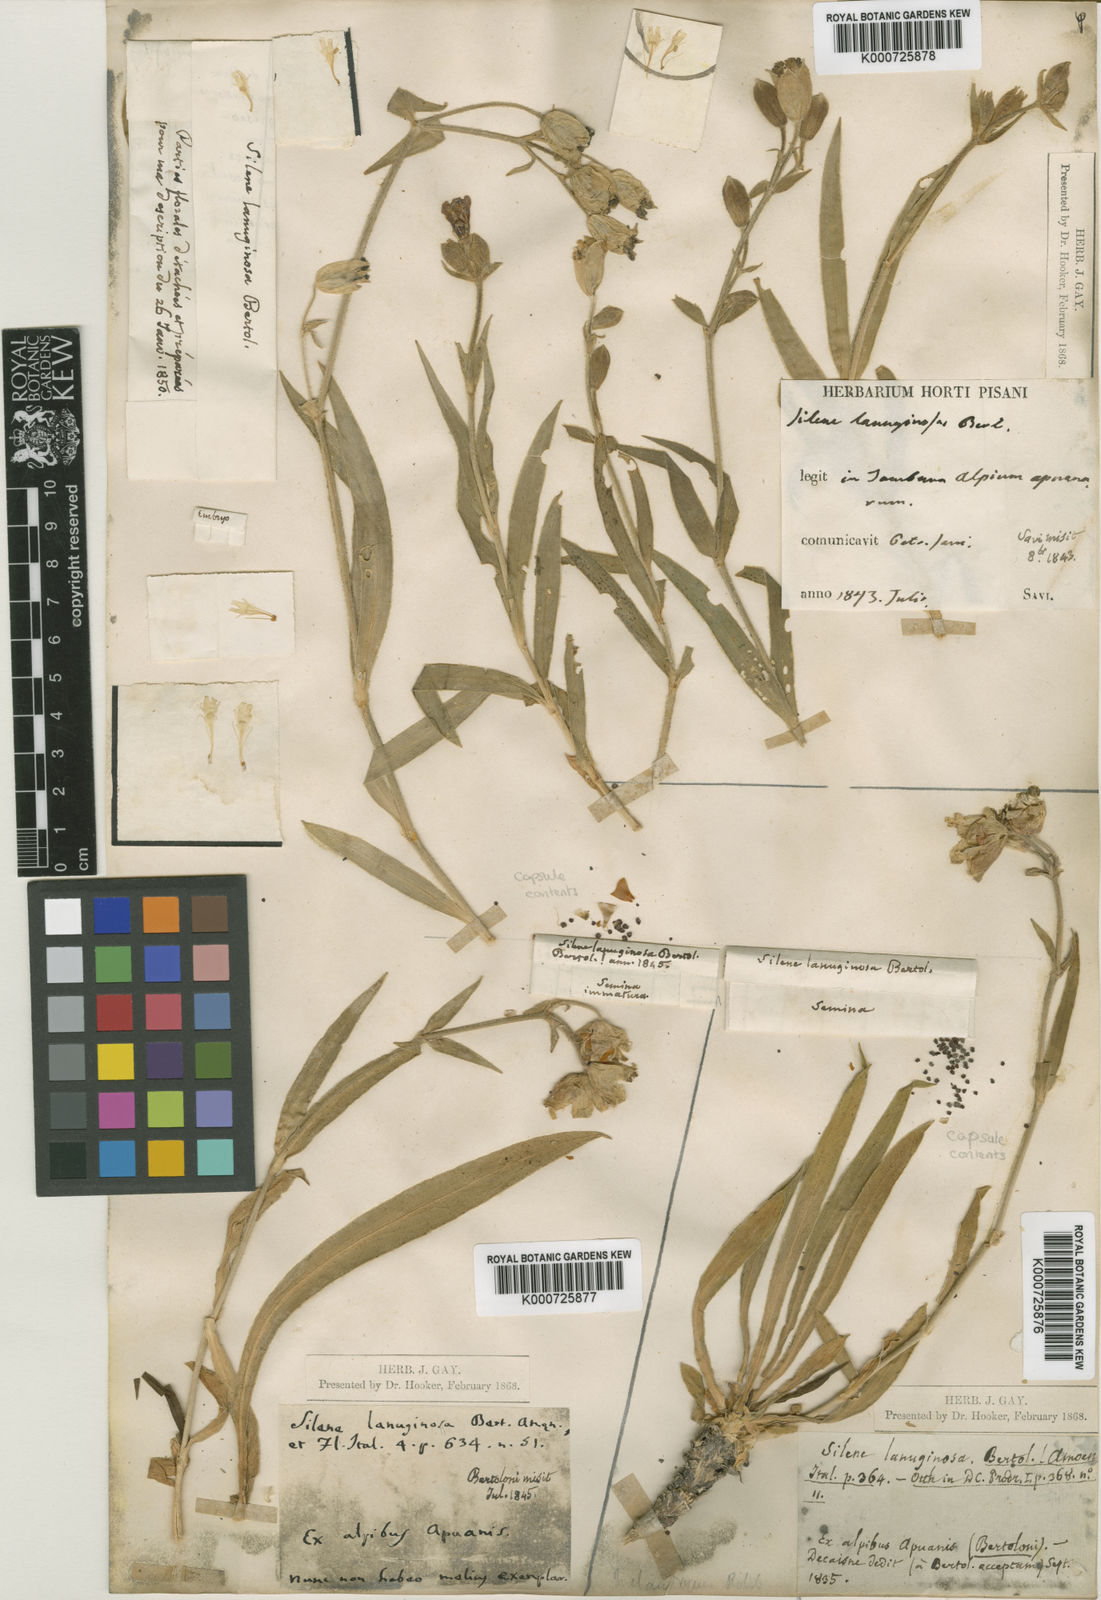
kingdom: Plantae
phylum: Tracheophyta
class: Magnoliopsida
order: Caryophyllales
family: Caryophyllaceae
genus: Silene
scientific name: Silene auriculata
